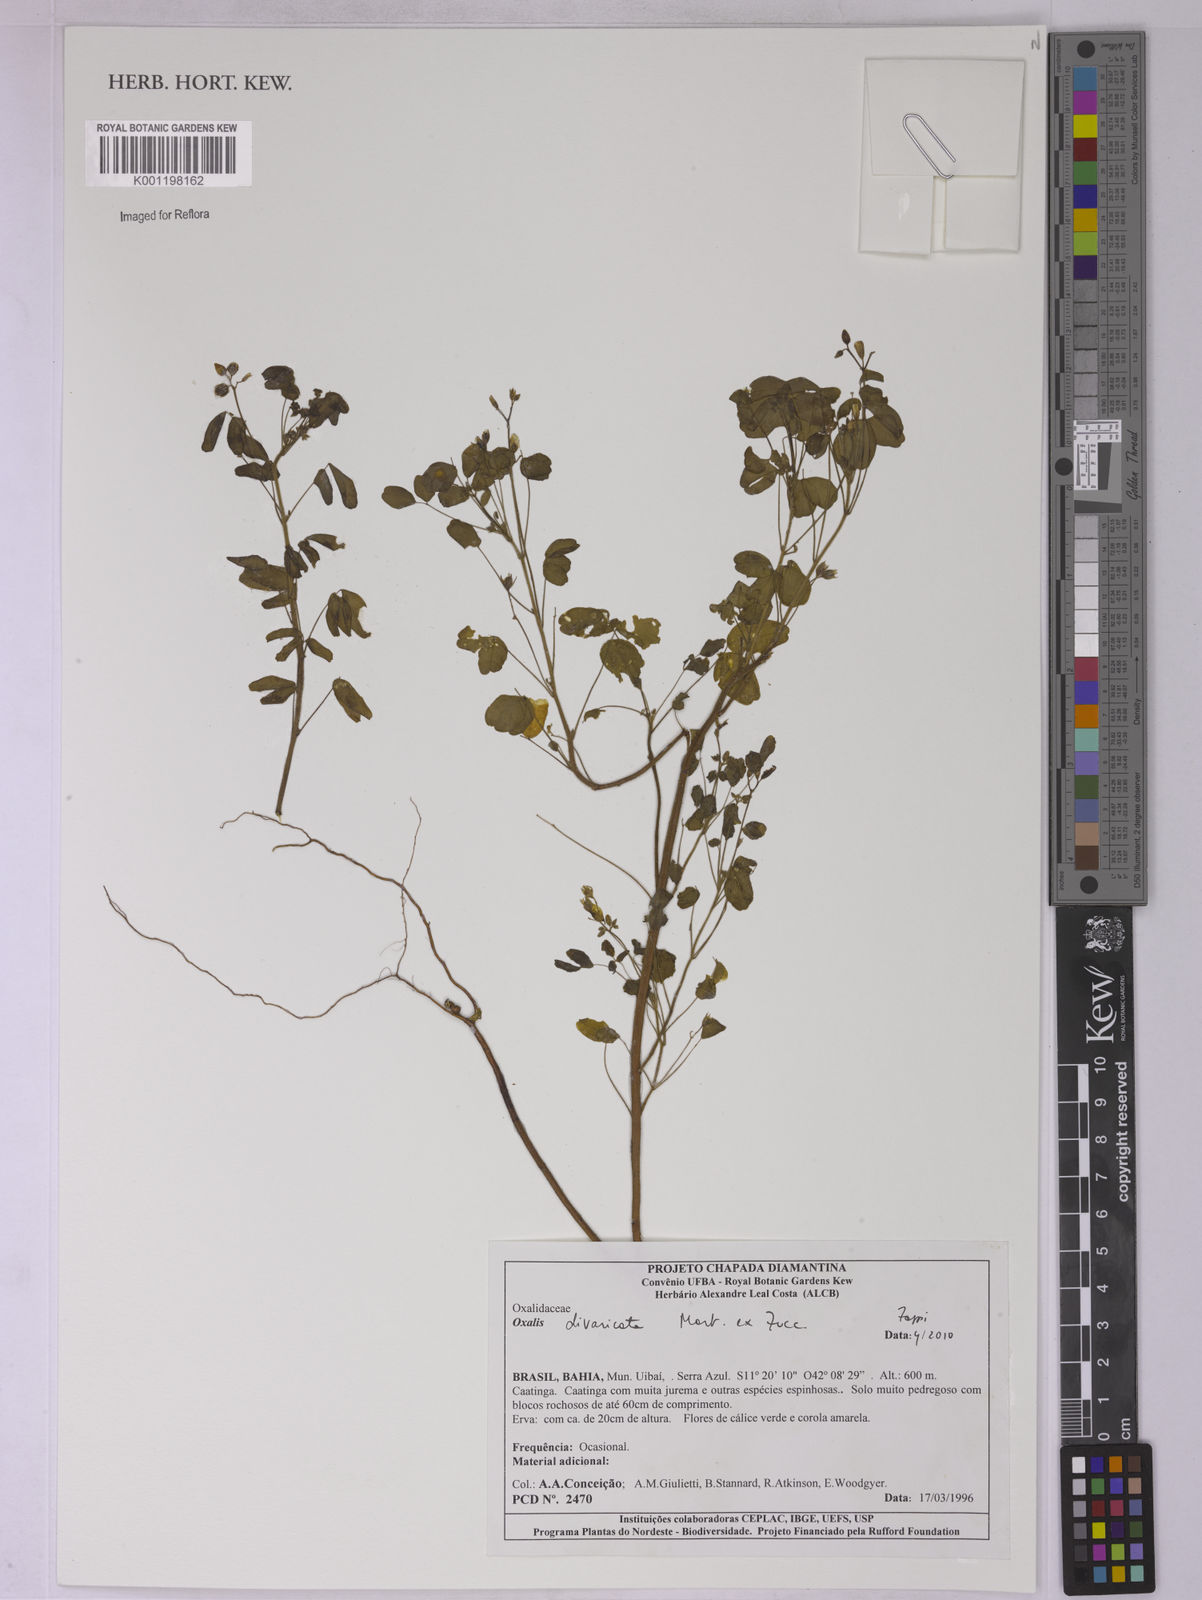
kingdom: Plantae
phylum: Tracheophyta
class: Magnoliopsida
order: Oxalidales
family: Oxalidaceae
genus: Oxalis
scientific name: Oxalis divaricata
